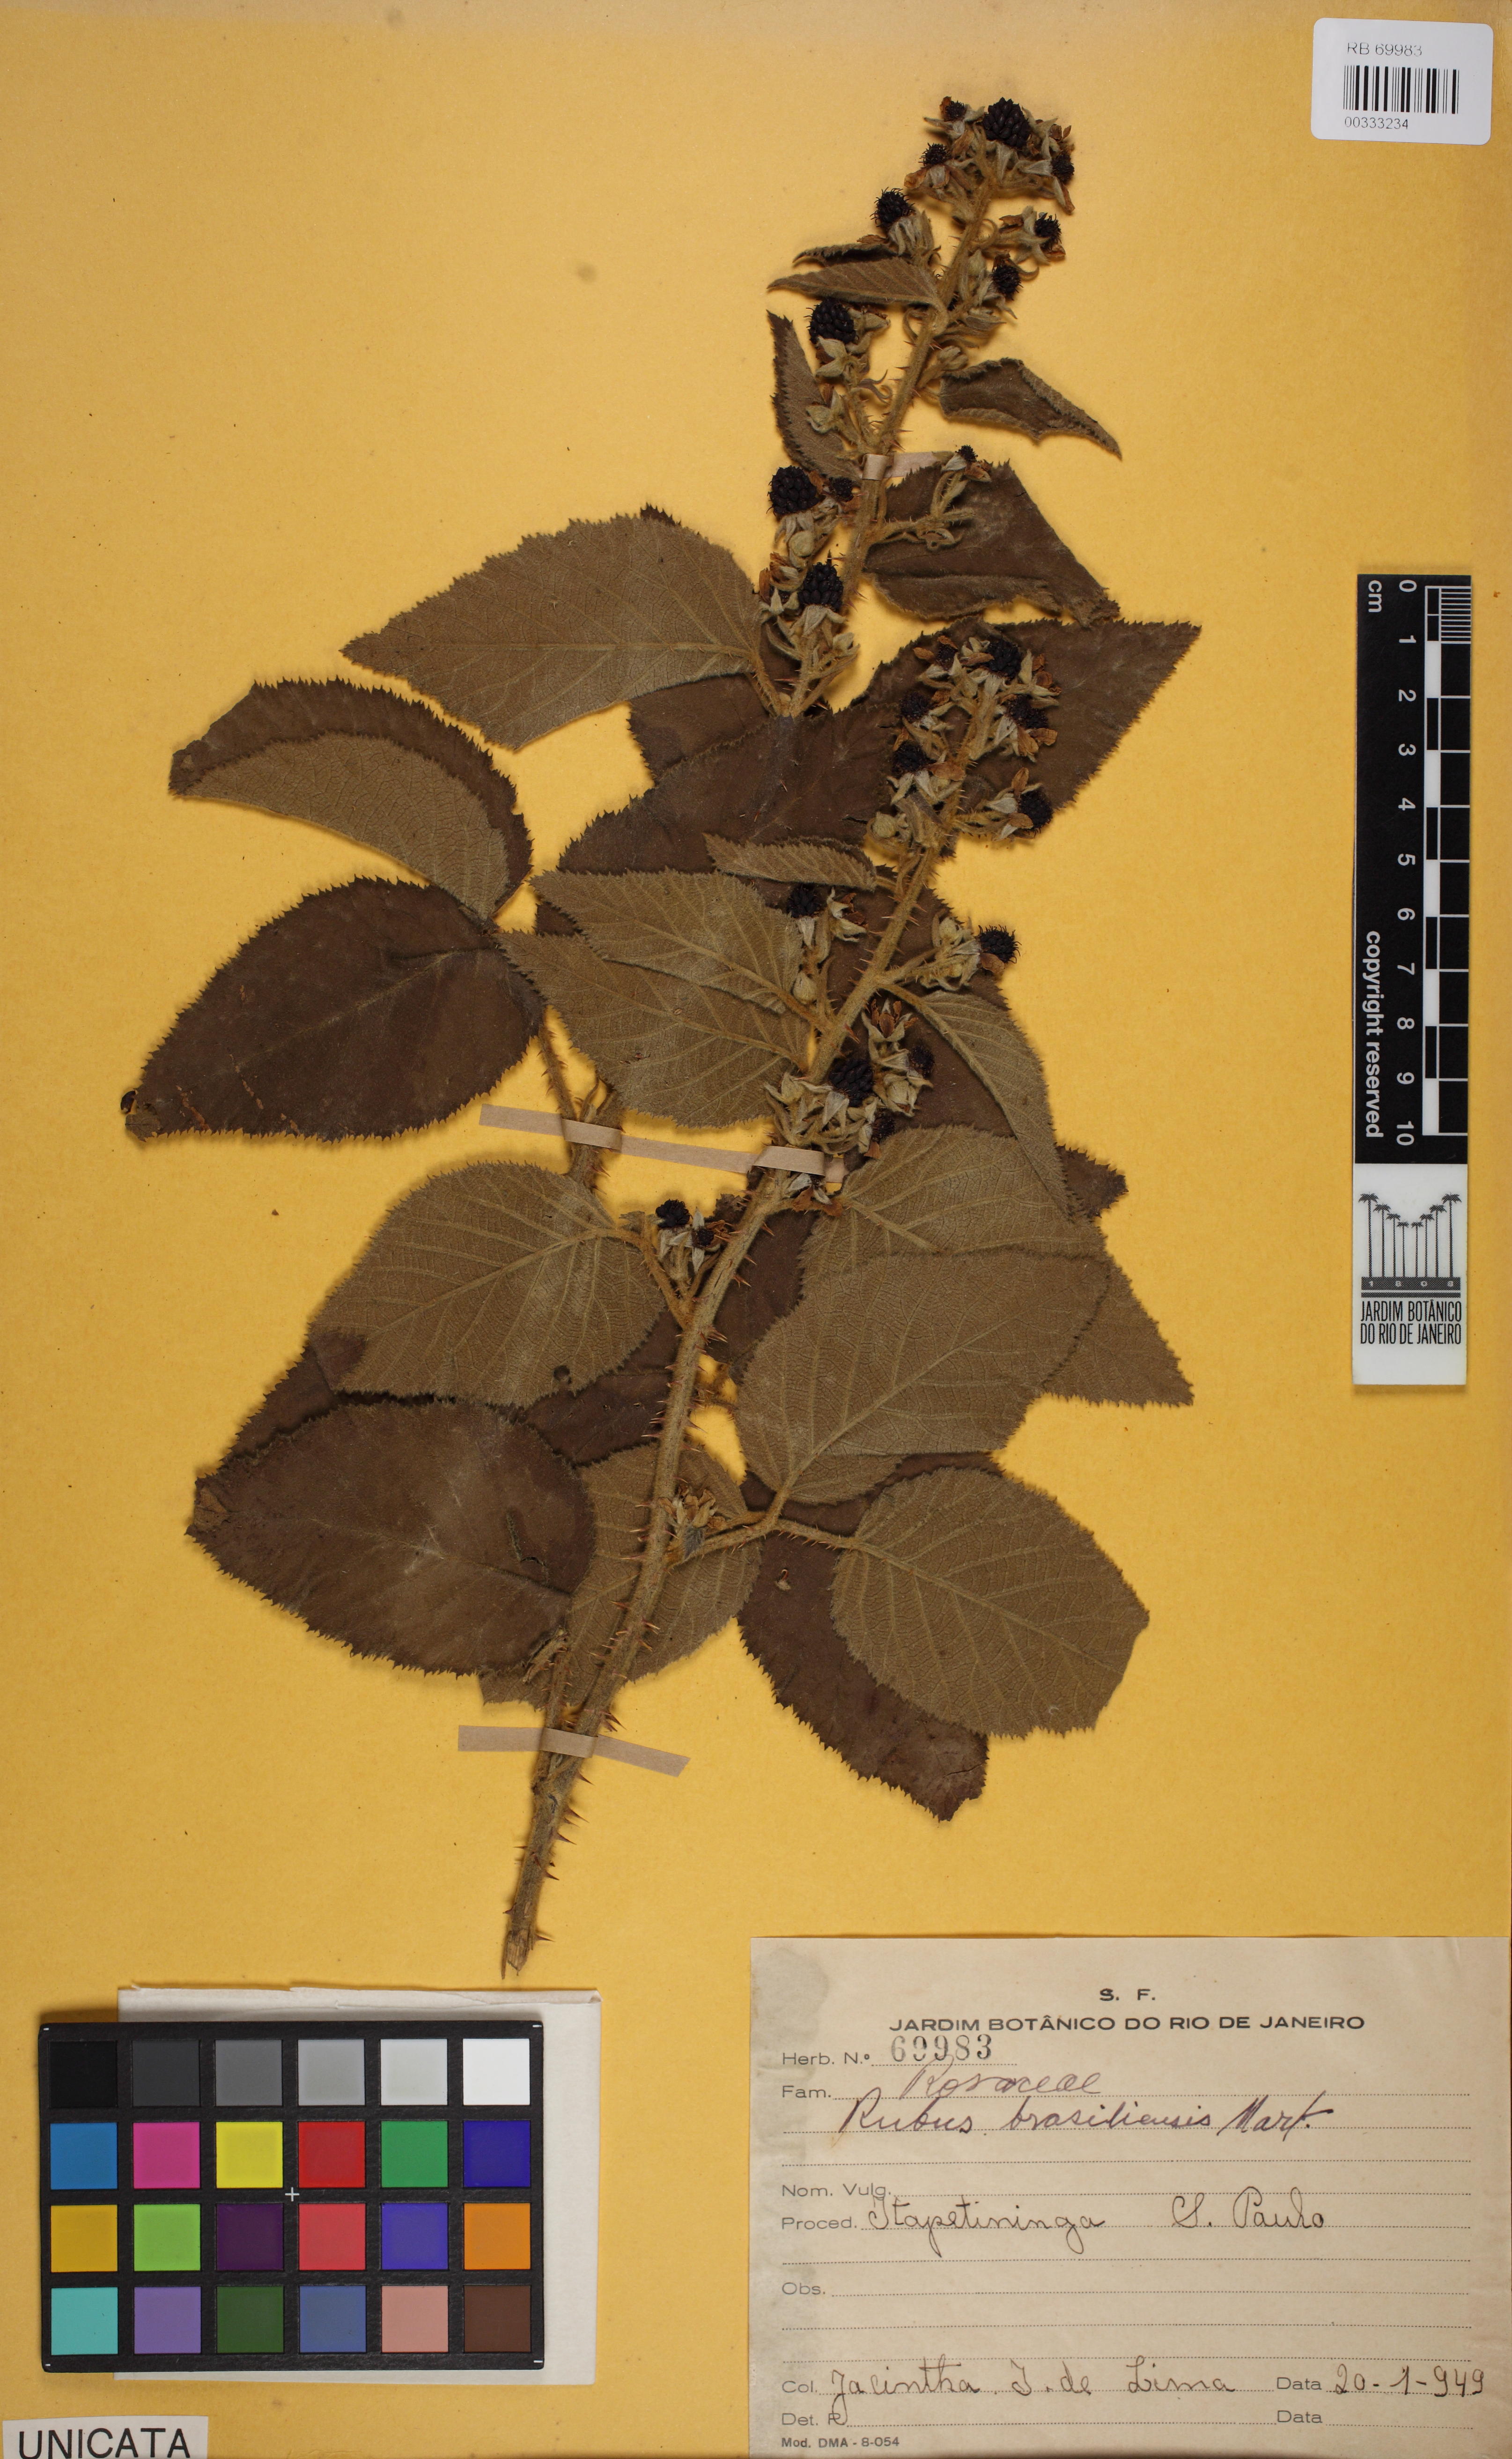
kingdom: Plantae
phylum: Tracheophyta
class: Magnoliopsida
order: Rosales
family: Rosaceae
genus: Rubus
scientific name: Rubus brasiliensis
